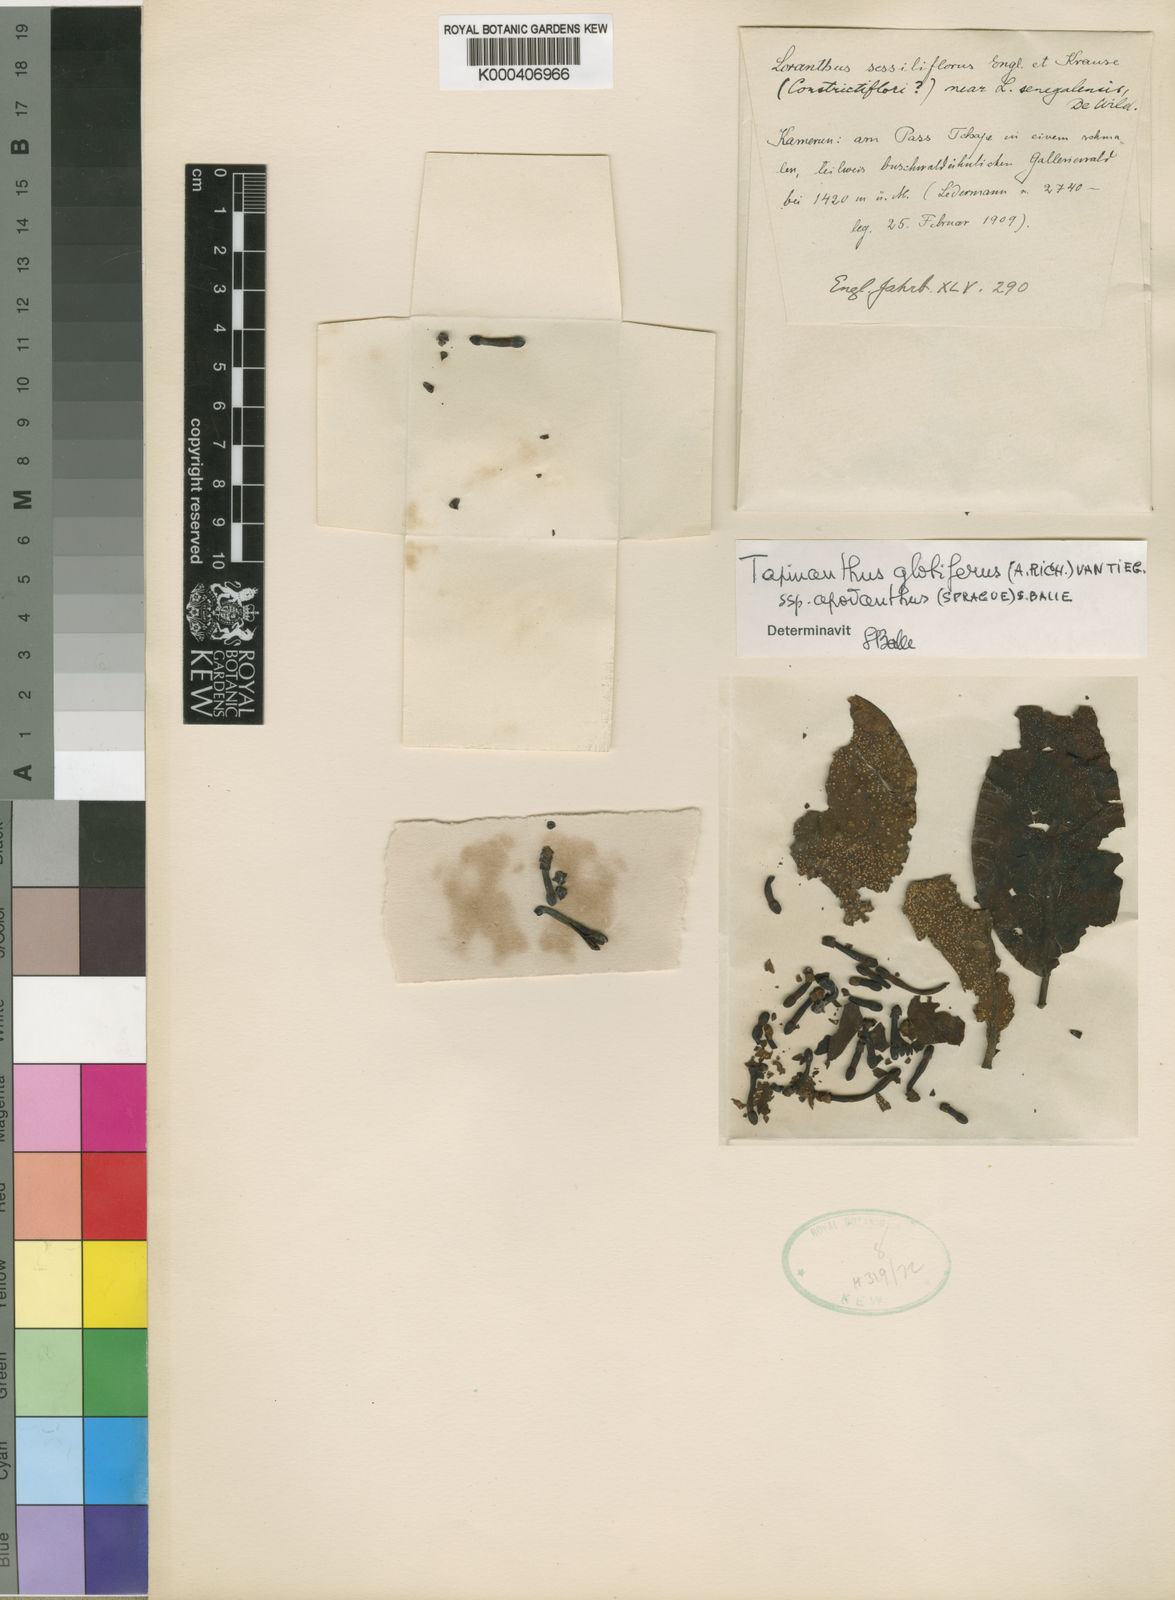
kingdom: Plantae
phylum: Tracheophyta
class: Magnoliopsida
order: Santalales
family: Loranthaceae
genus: Tapinanthus
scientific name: Tapinanthus apodanthus
